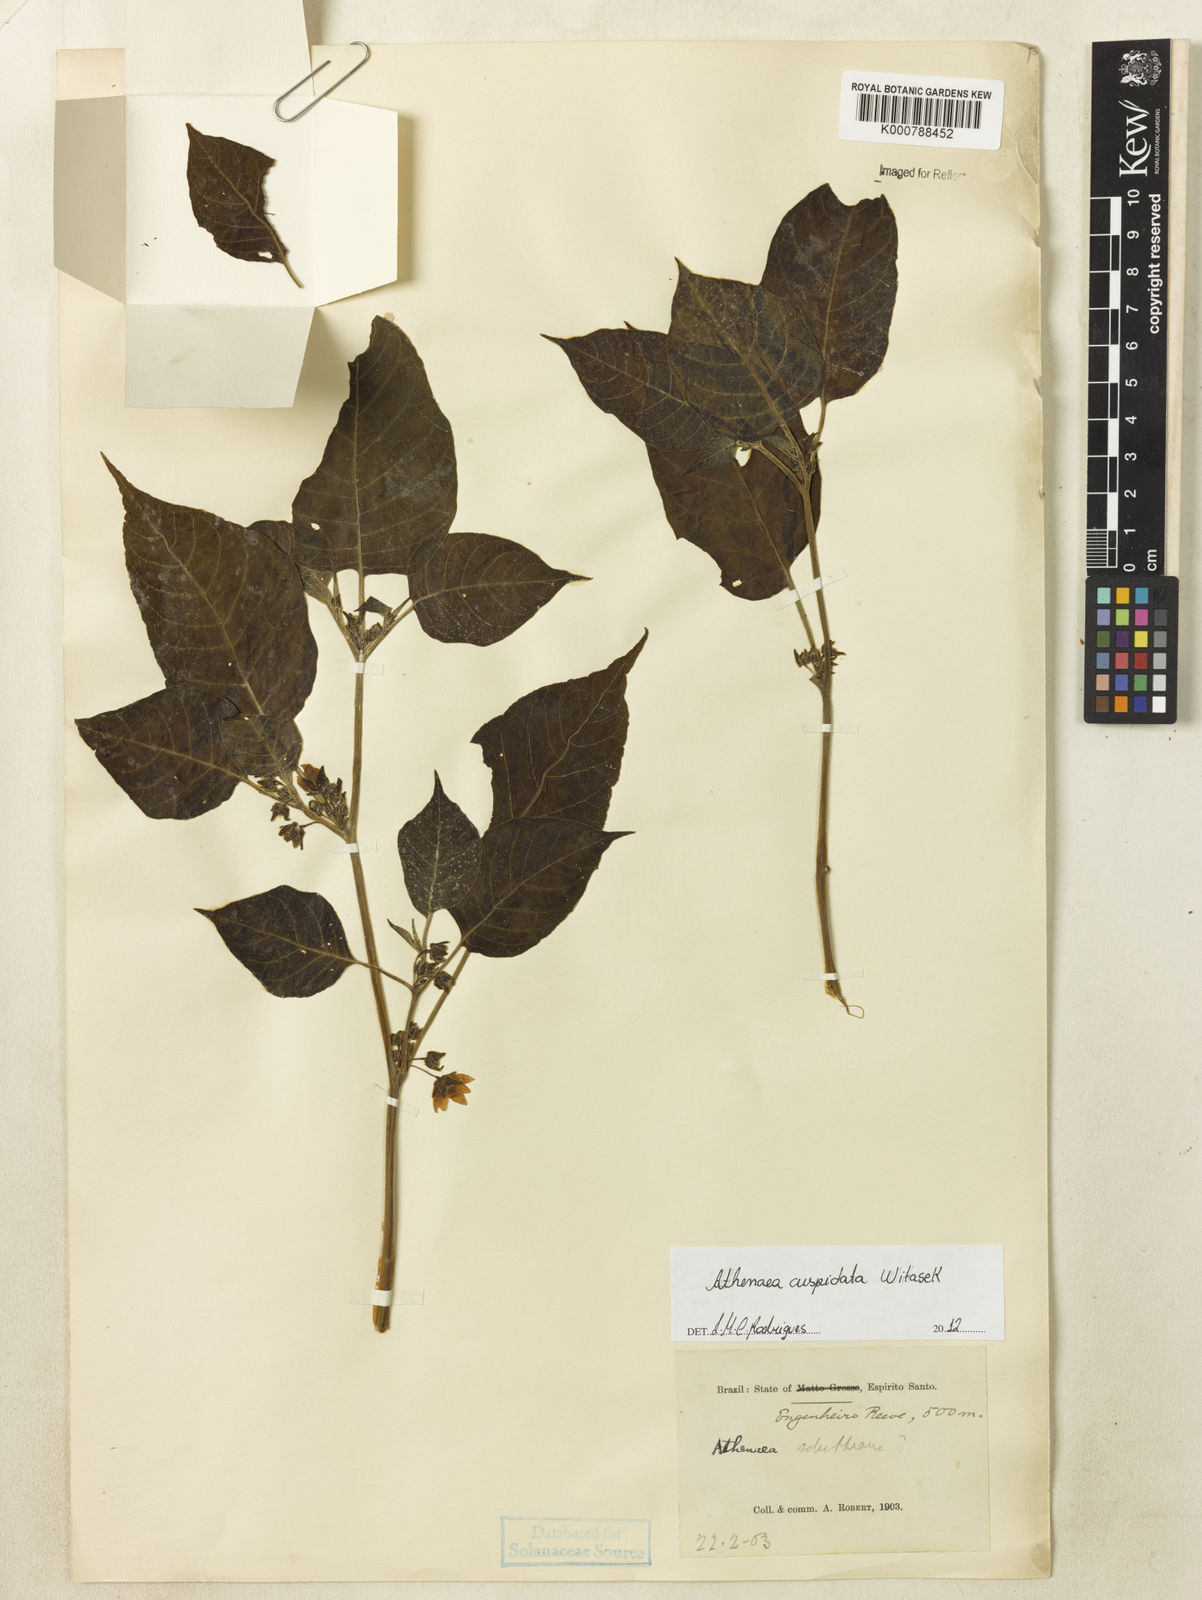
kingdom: Plantae
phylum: Tracheophyta
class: Magnoliopsida
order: Solanales
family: Solanaceae
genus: Athenaea
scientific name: Athenaea cuspidata
